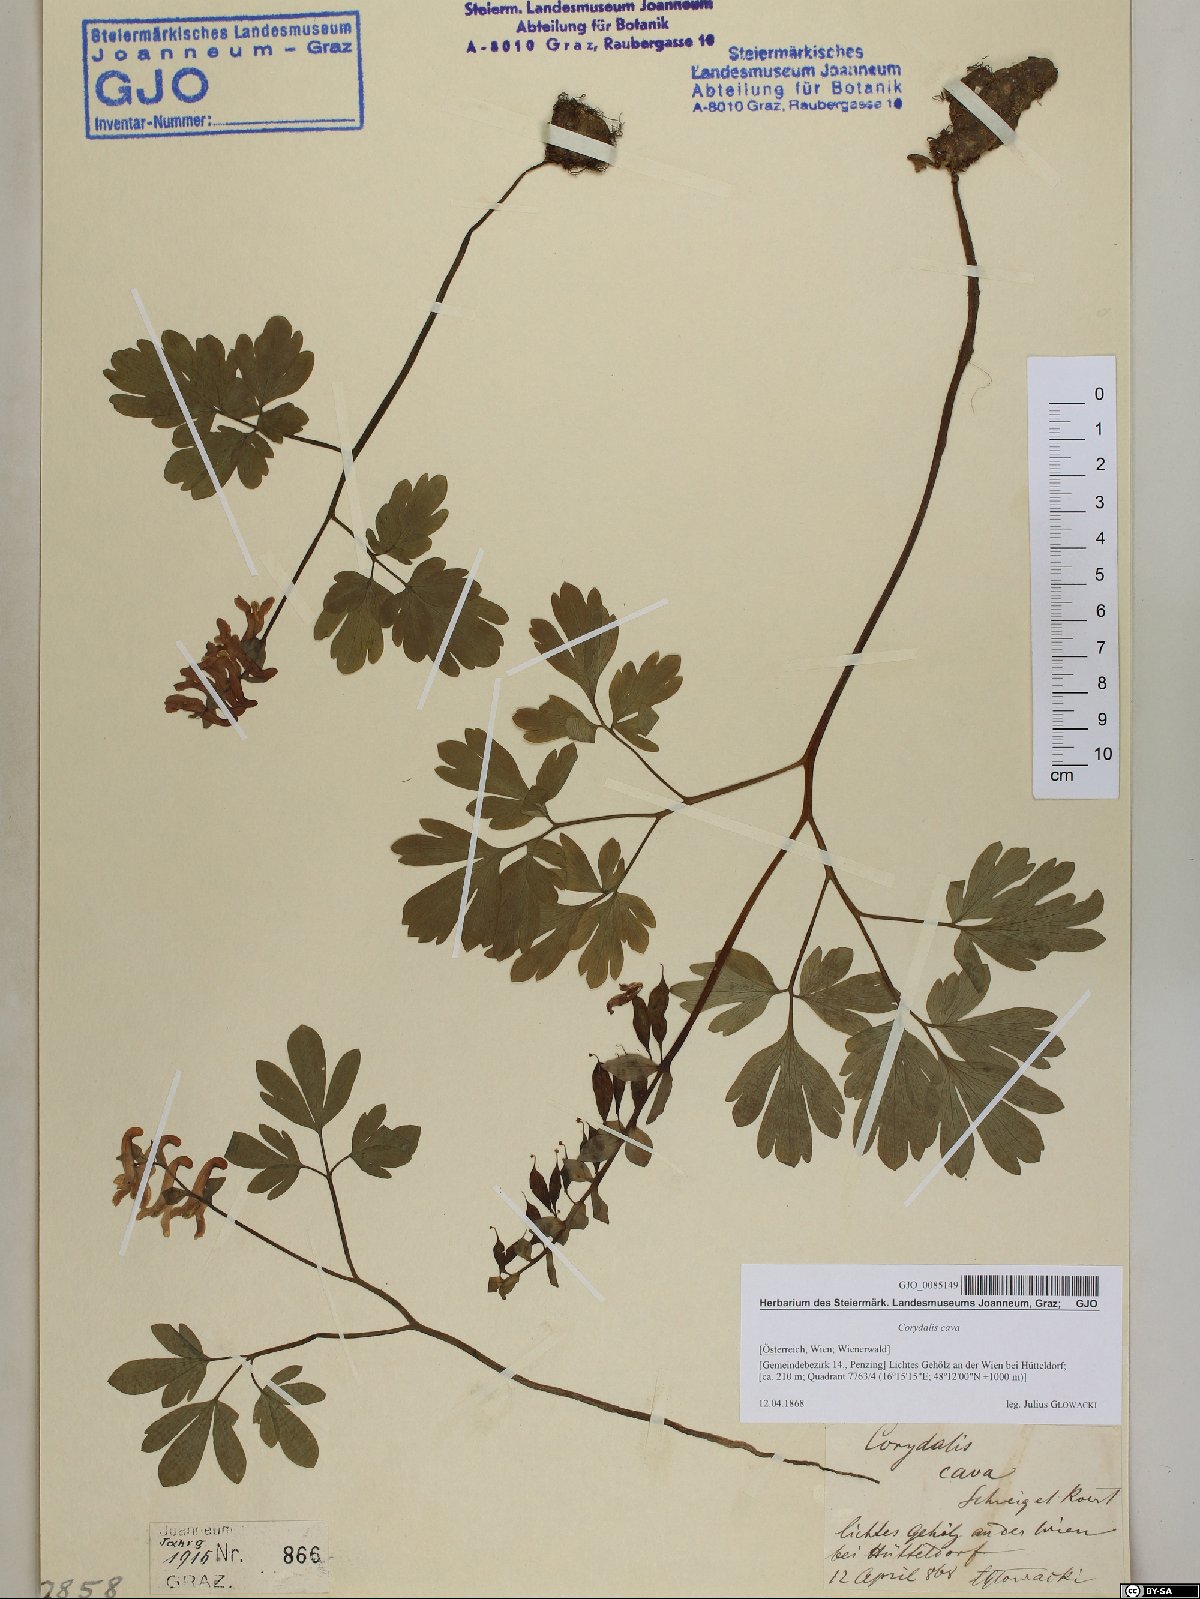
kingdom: Plantae
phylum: Tracheophyta
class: Magnoliopsida
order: Ranunculales
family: Papaveraceae
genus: Corydalis
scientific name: Corydalis cava
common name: Hollowroot
